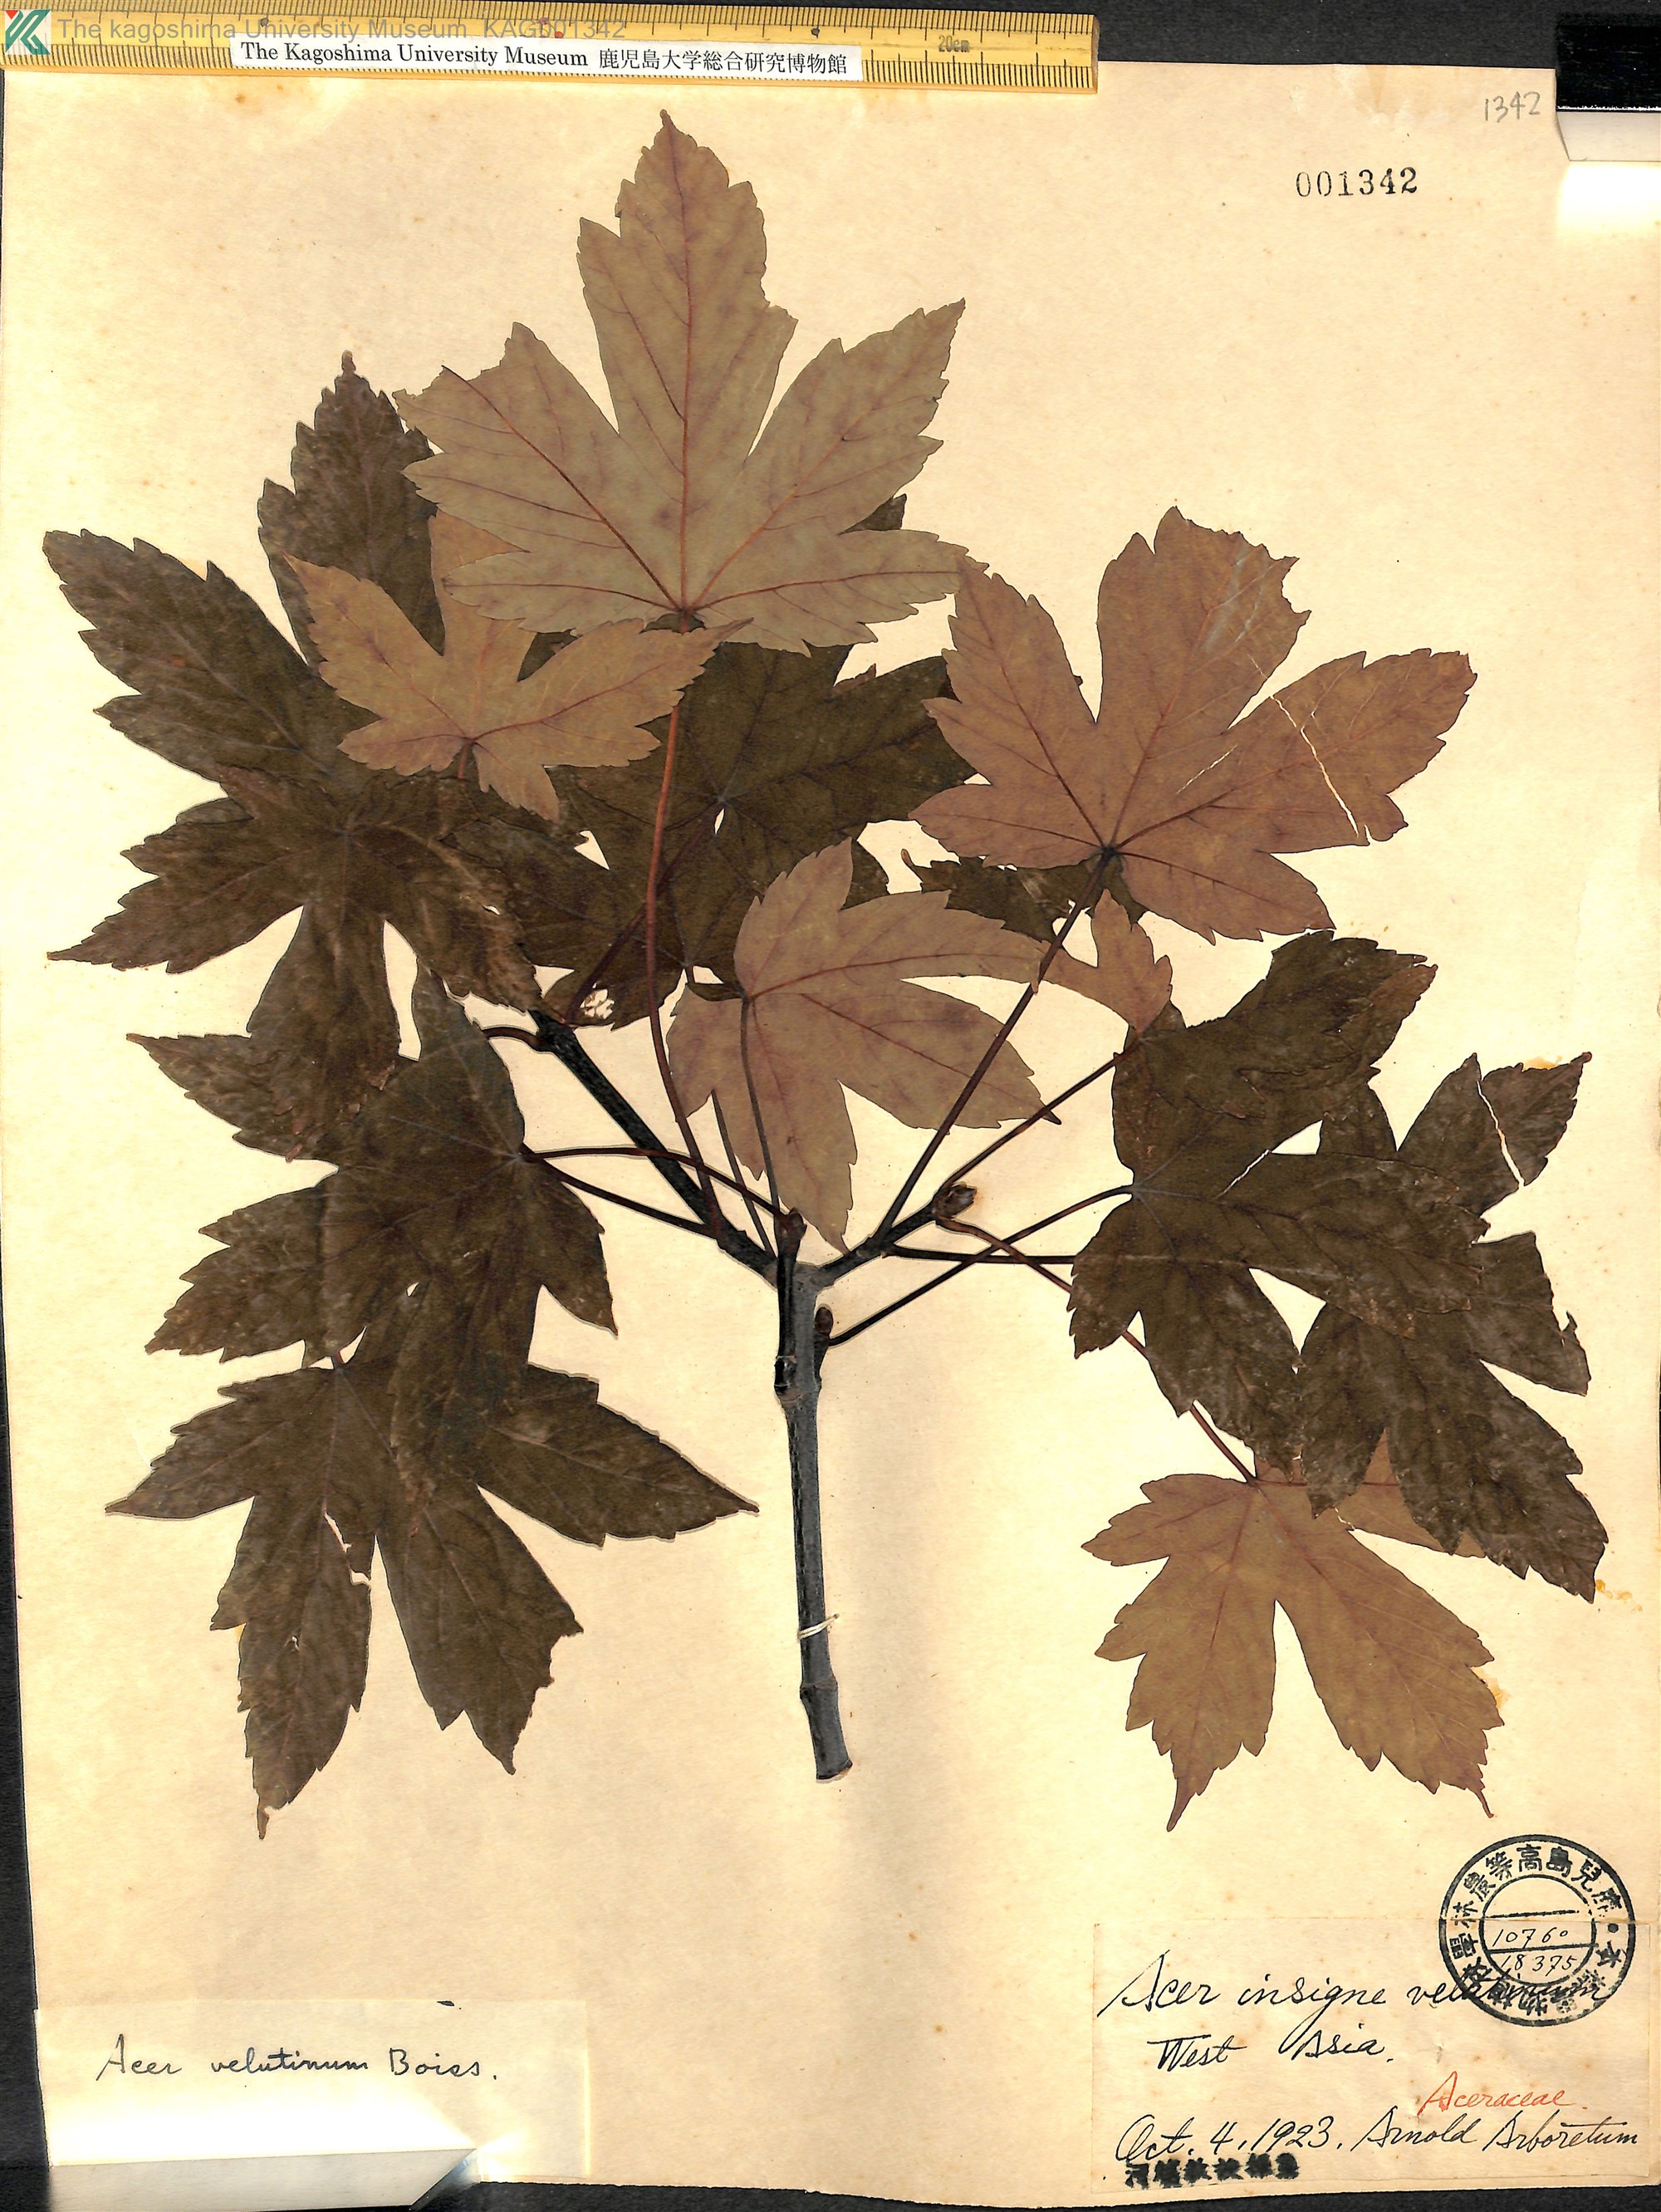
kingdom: Plantae
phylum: Tracheophyta
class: Magnoliopsida
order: Sapindales
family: Sapindaceae
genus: Acer
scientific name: Acer velutinum
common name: Velvet maple
